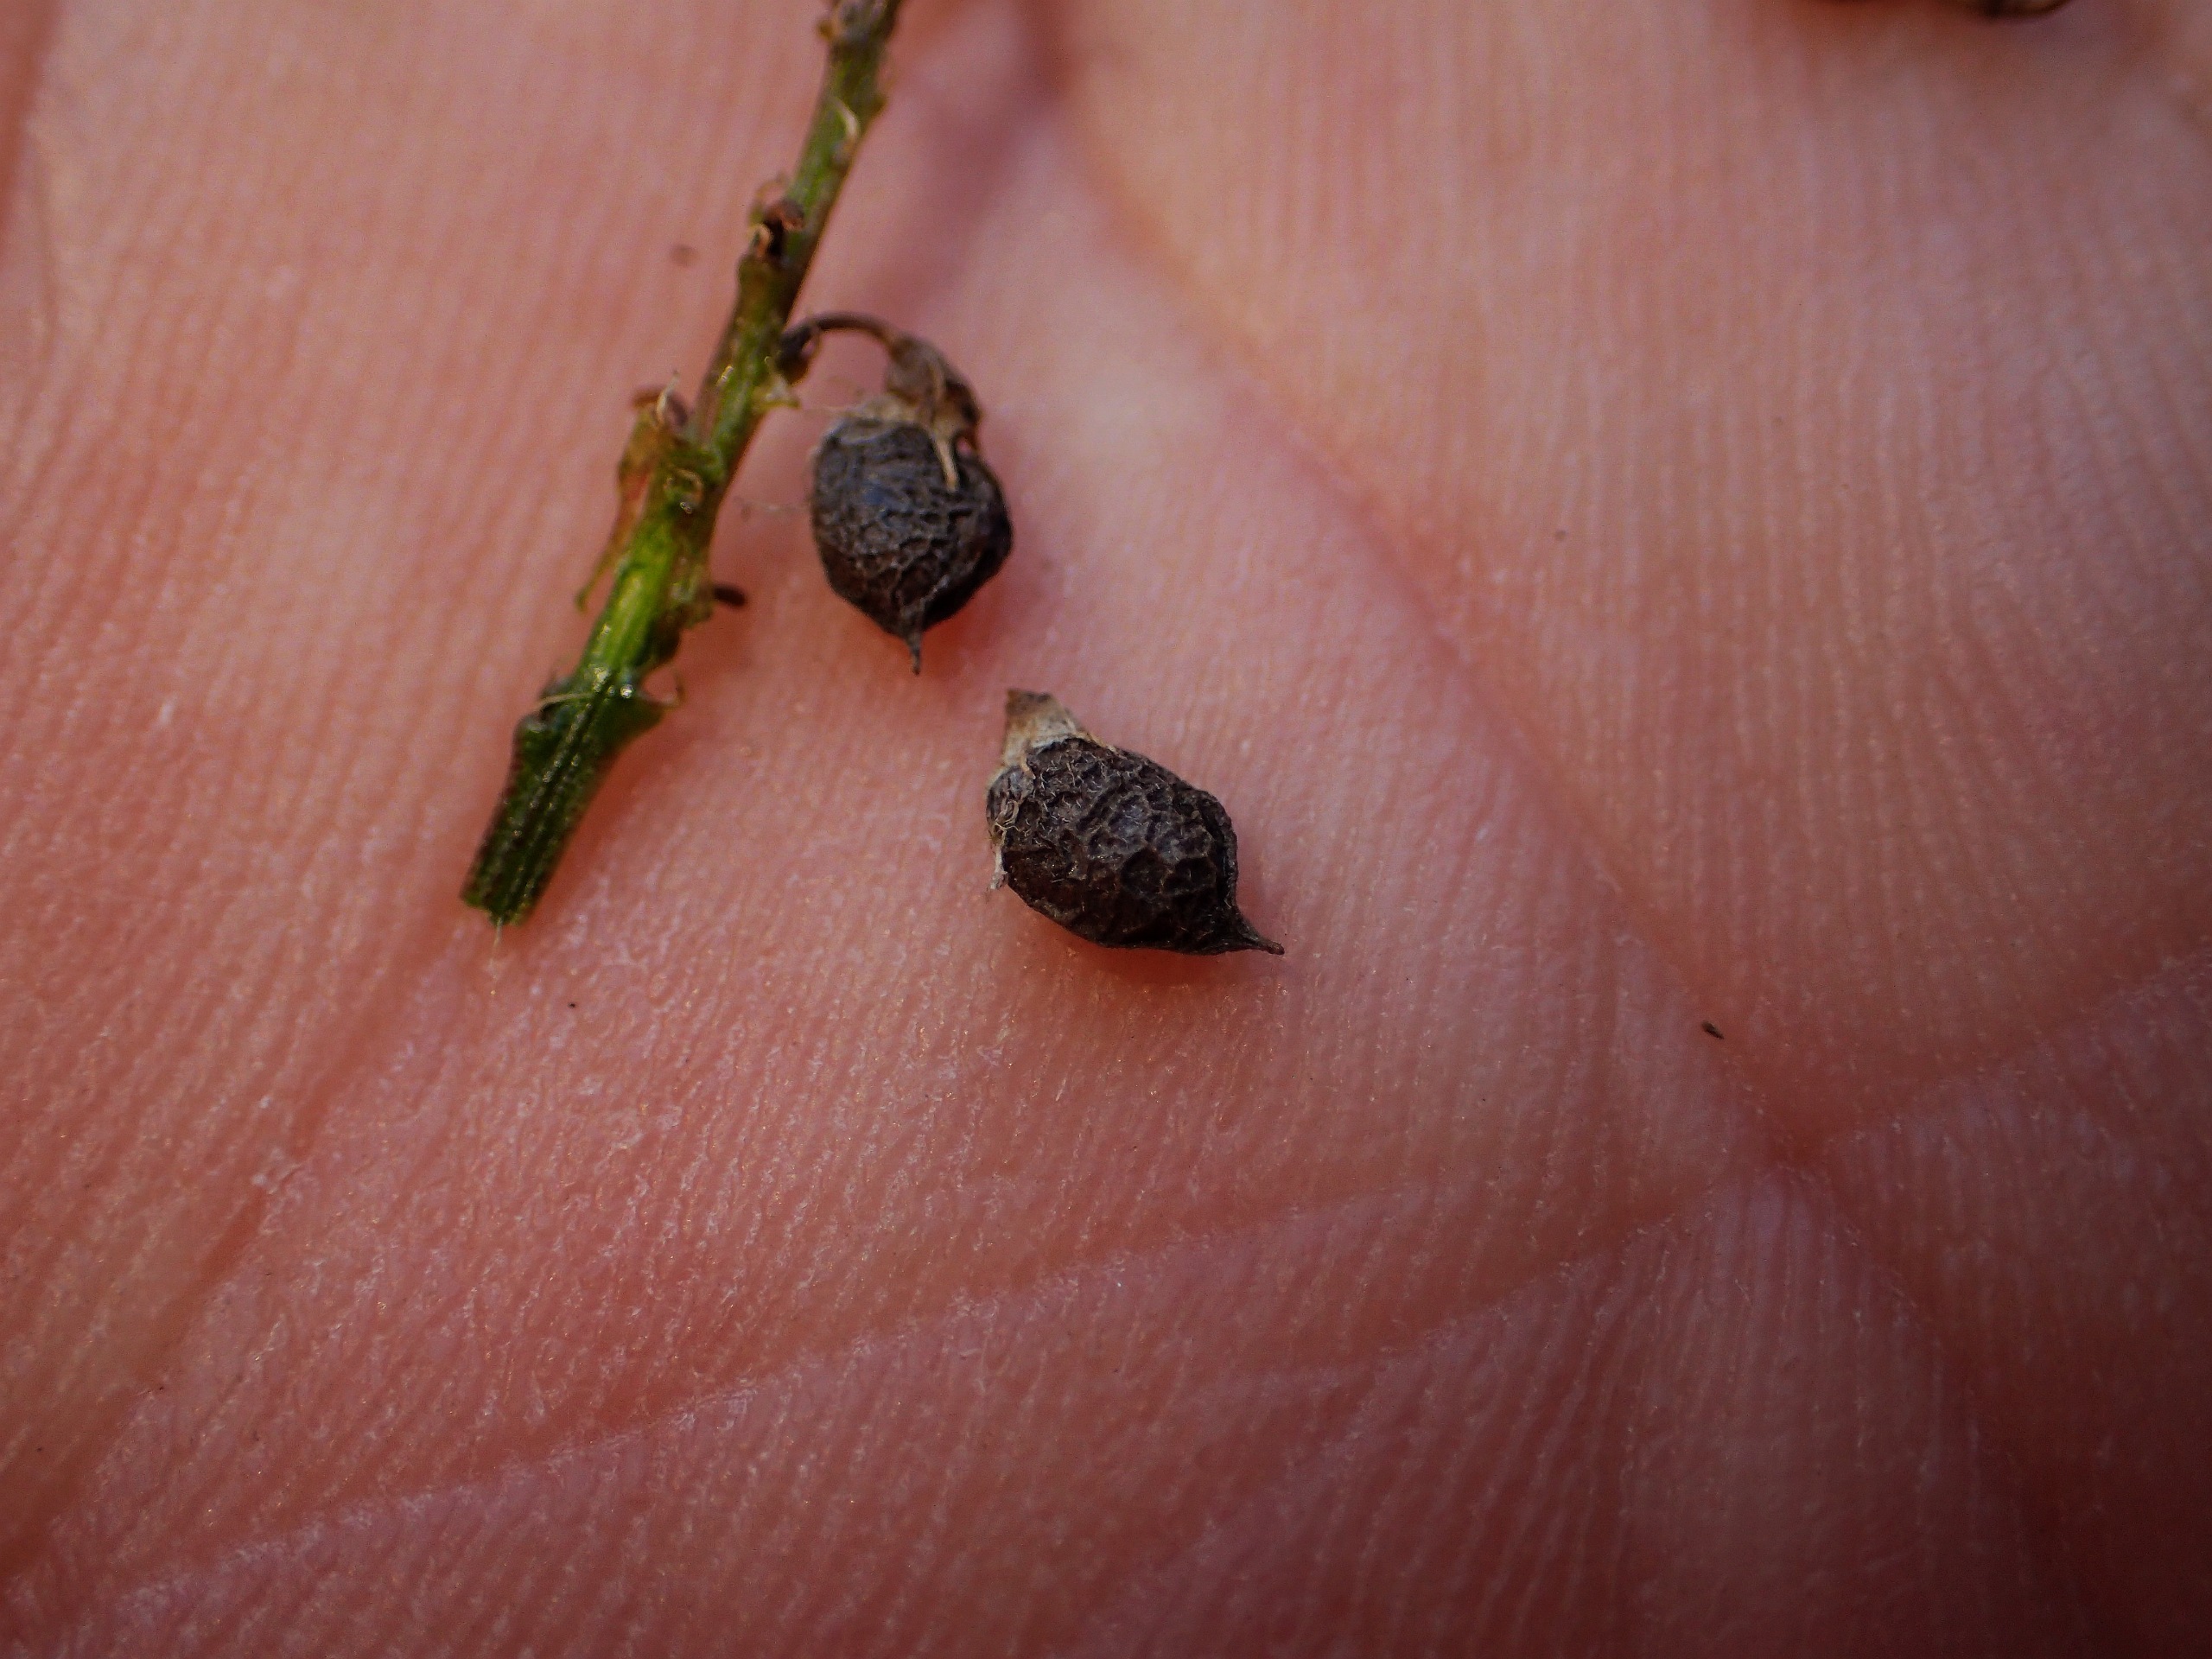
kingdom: Plantae
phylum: Tracheophyta
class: Magnoliopsida
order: Fabales
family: Fabaceae
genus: Melilotus
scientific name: Melilotus altissimus
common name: Høj stenkløver
